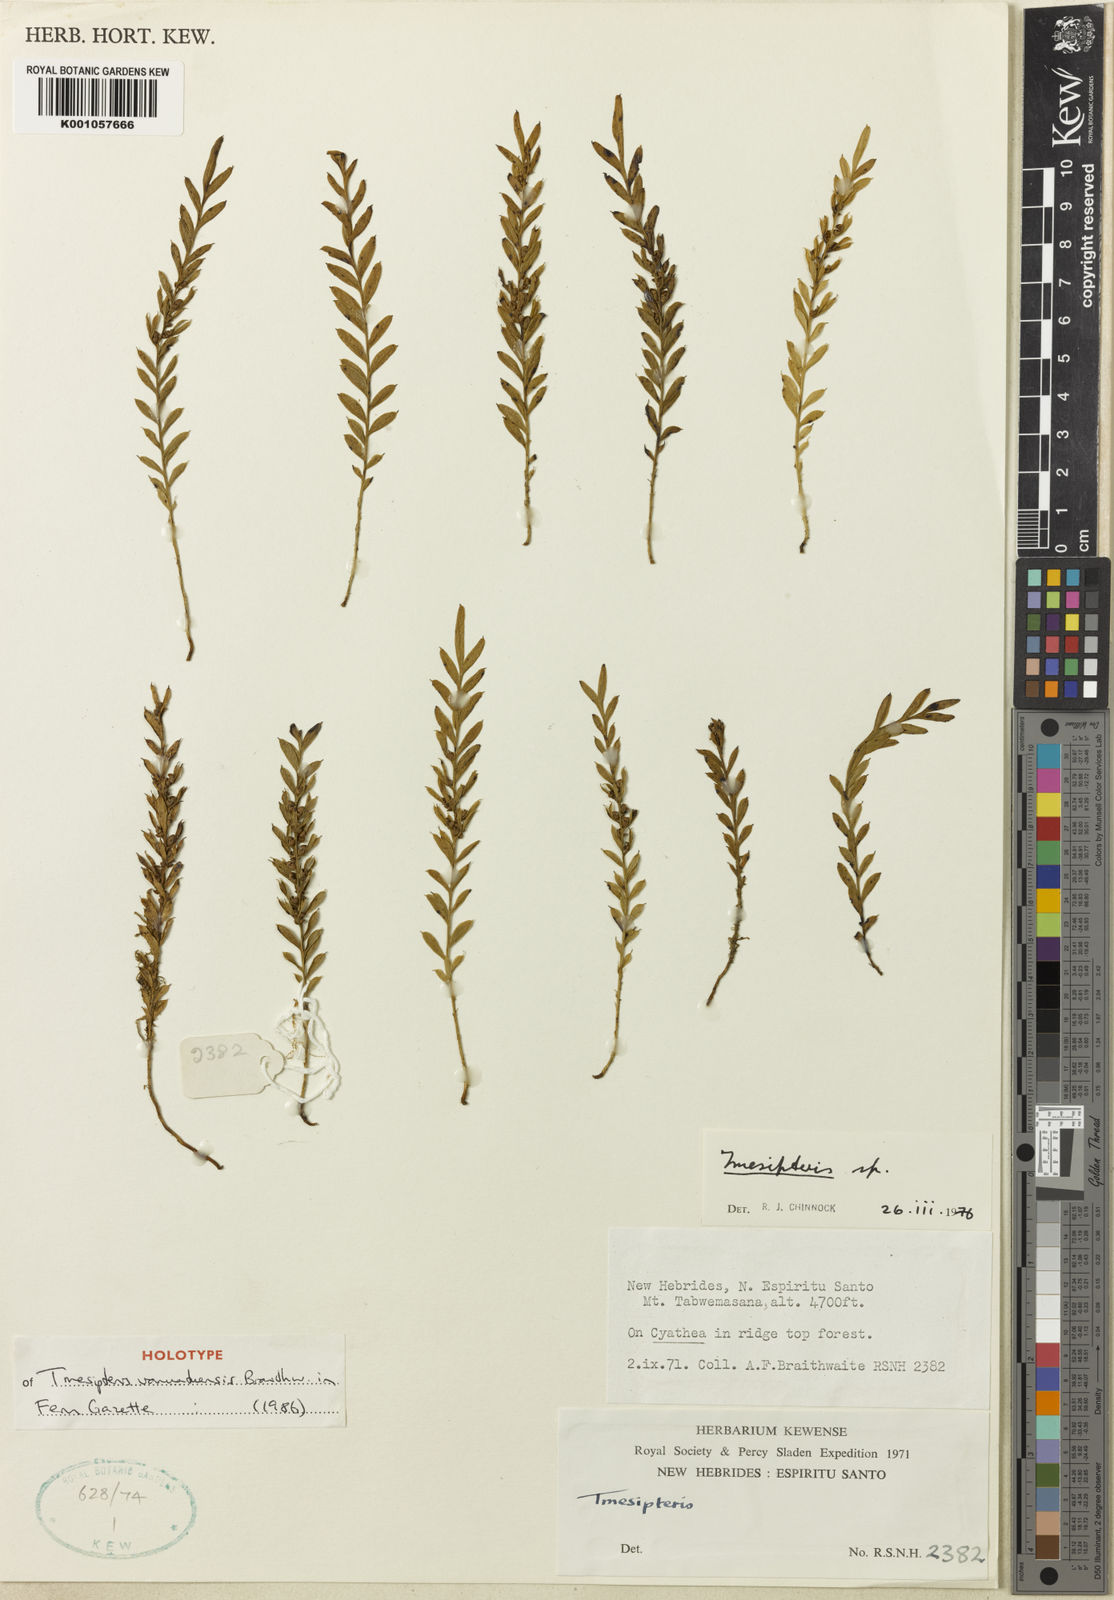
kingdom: Plantae
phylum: Tracheophyta
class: Polypodiopsida
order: Psilotales
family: Psilotaceae
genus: Tmesipteris
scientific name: Tmesipteris vanuatensis
